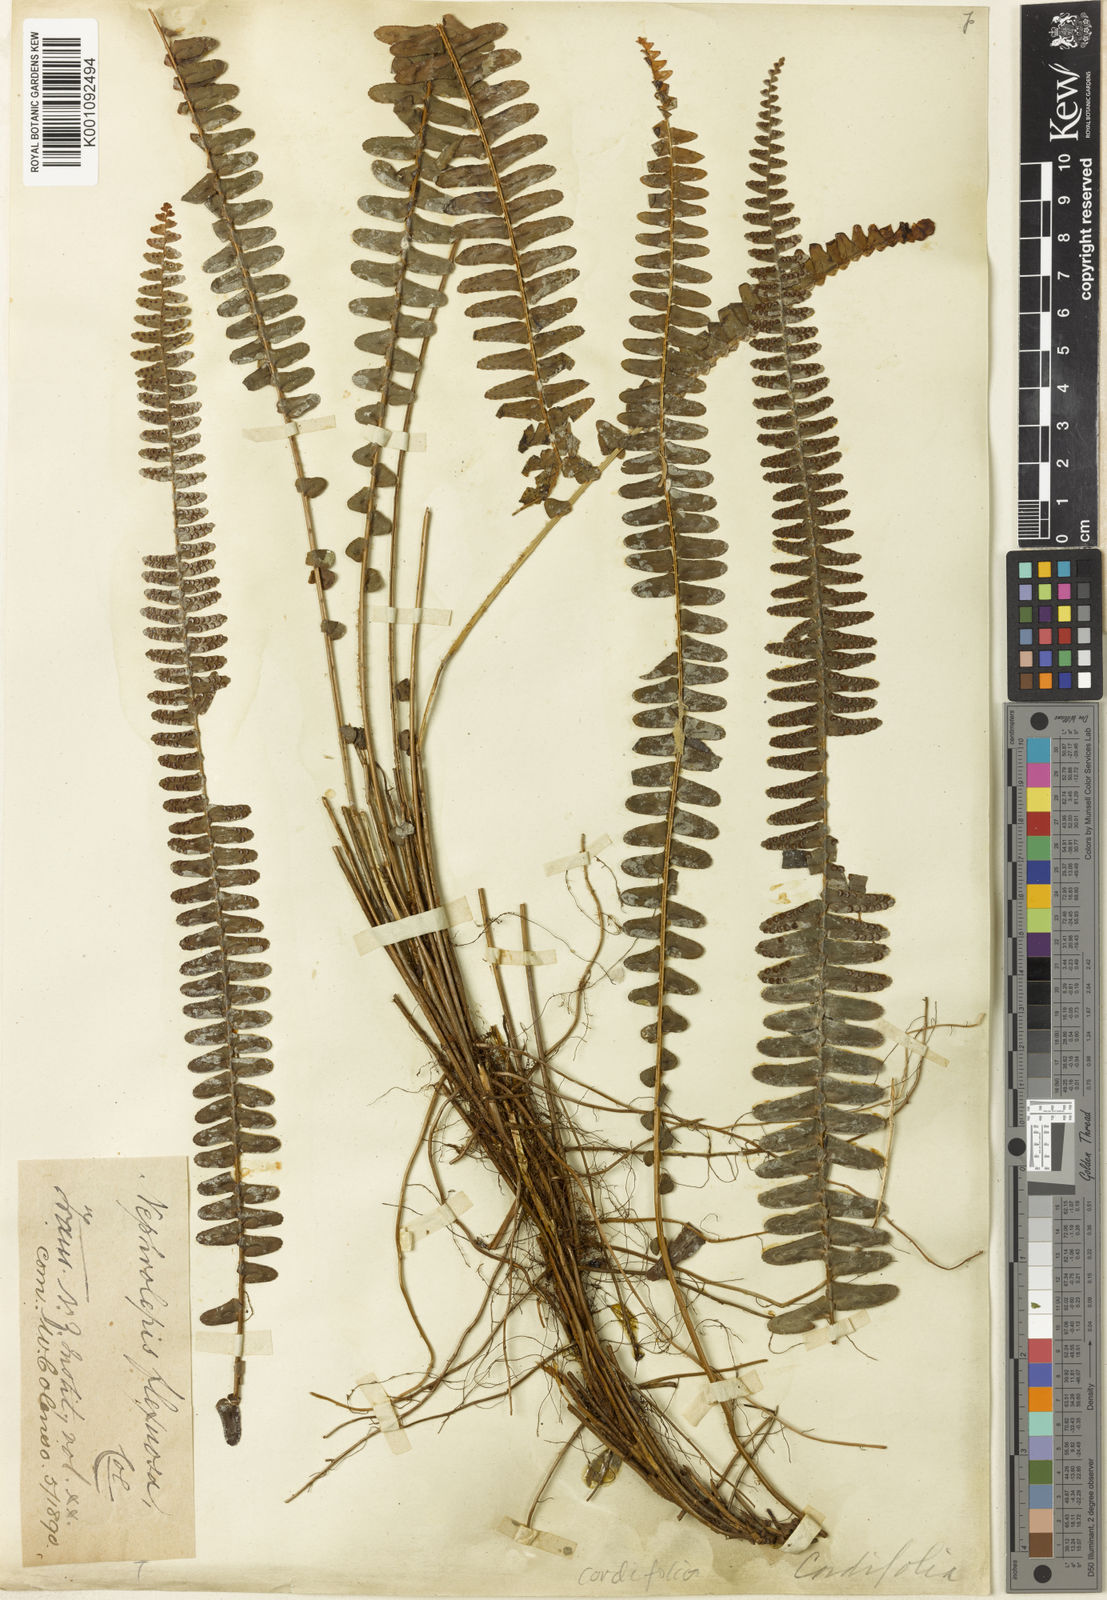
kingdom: Plantae
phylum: Tracheophyta
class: Polypodiopsida
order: Polypodiales
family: Nephrolepidaceae
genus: Nephrolepis
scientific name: Nephrolepis cordifolia
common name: Narrow swordfern
